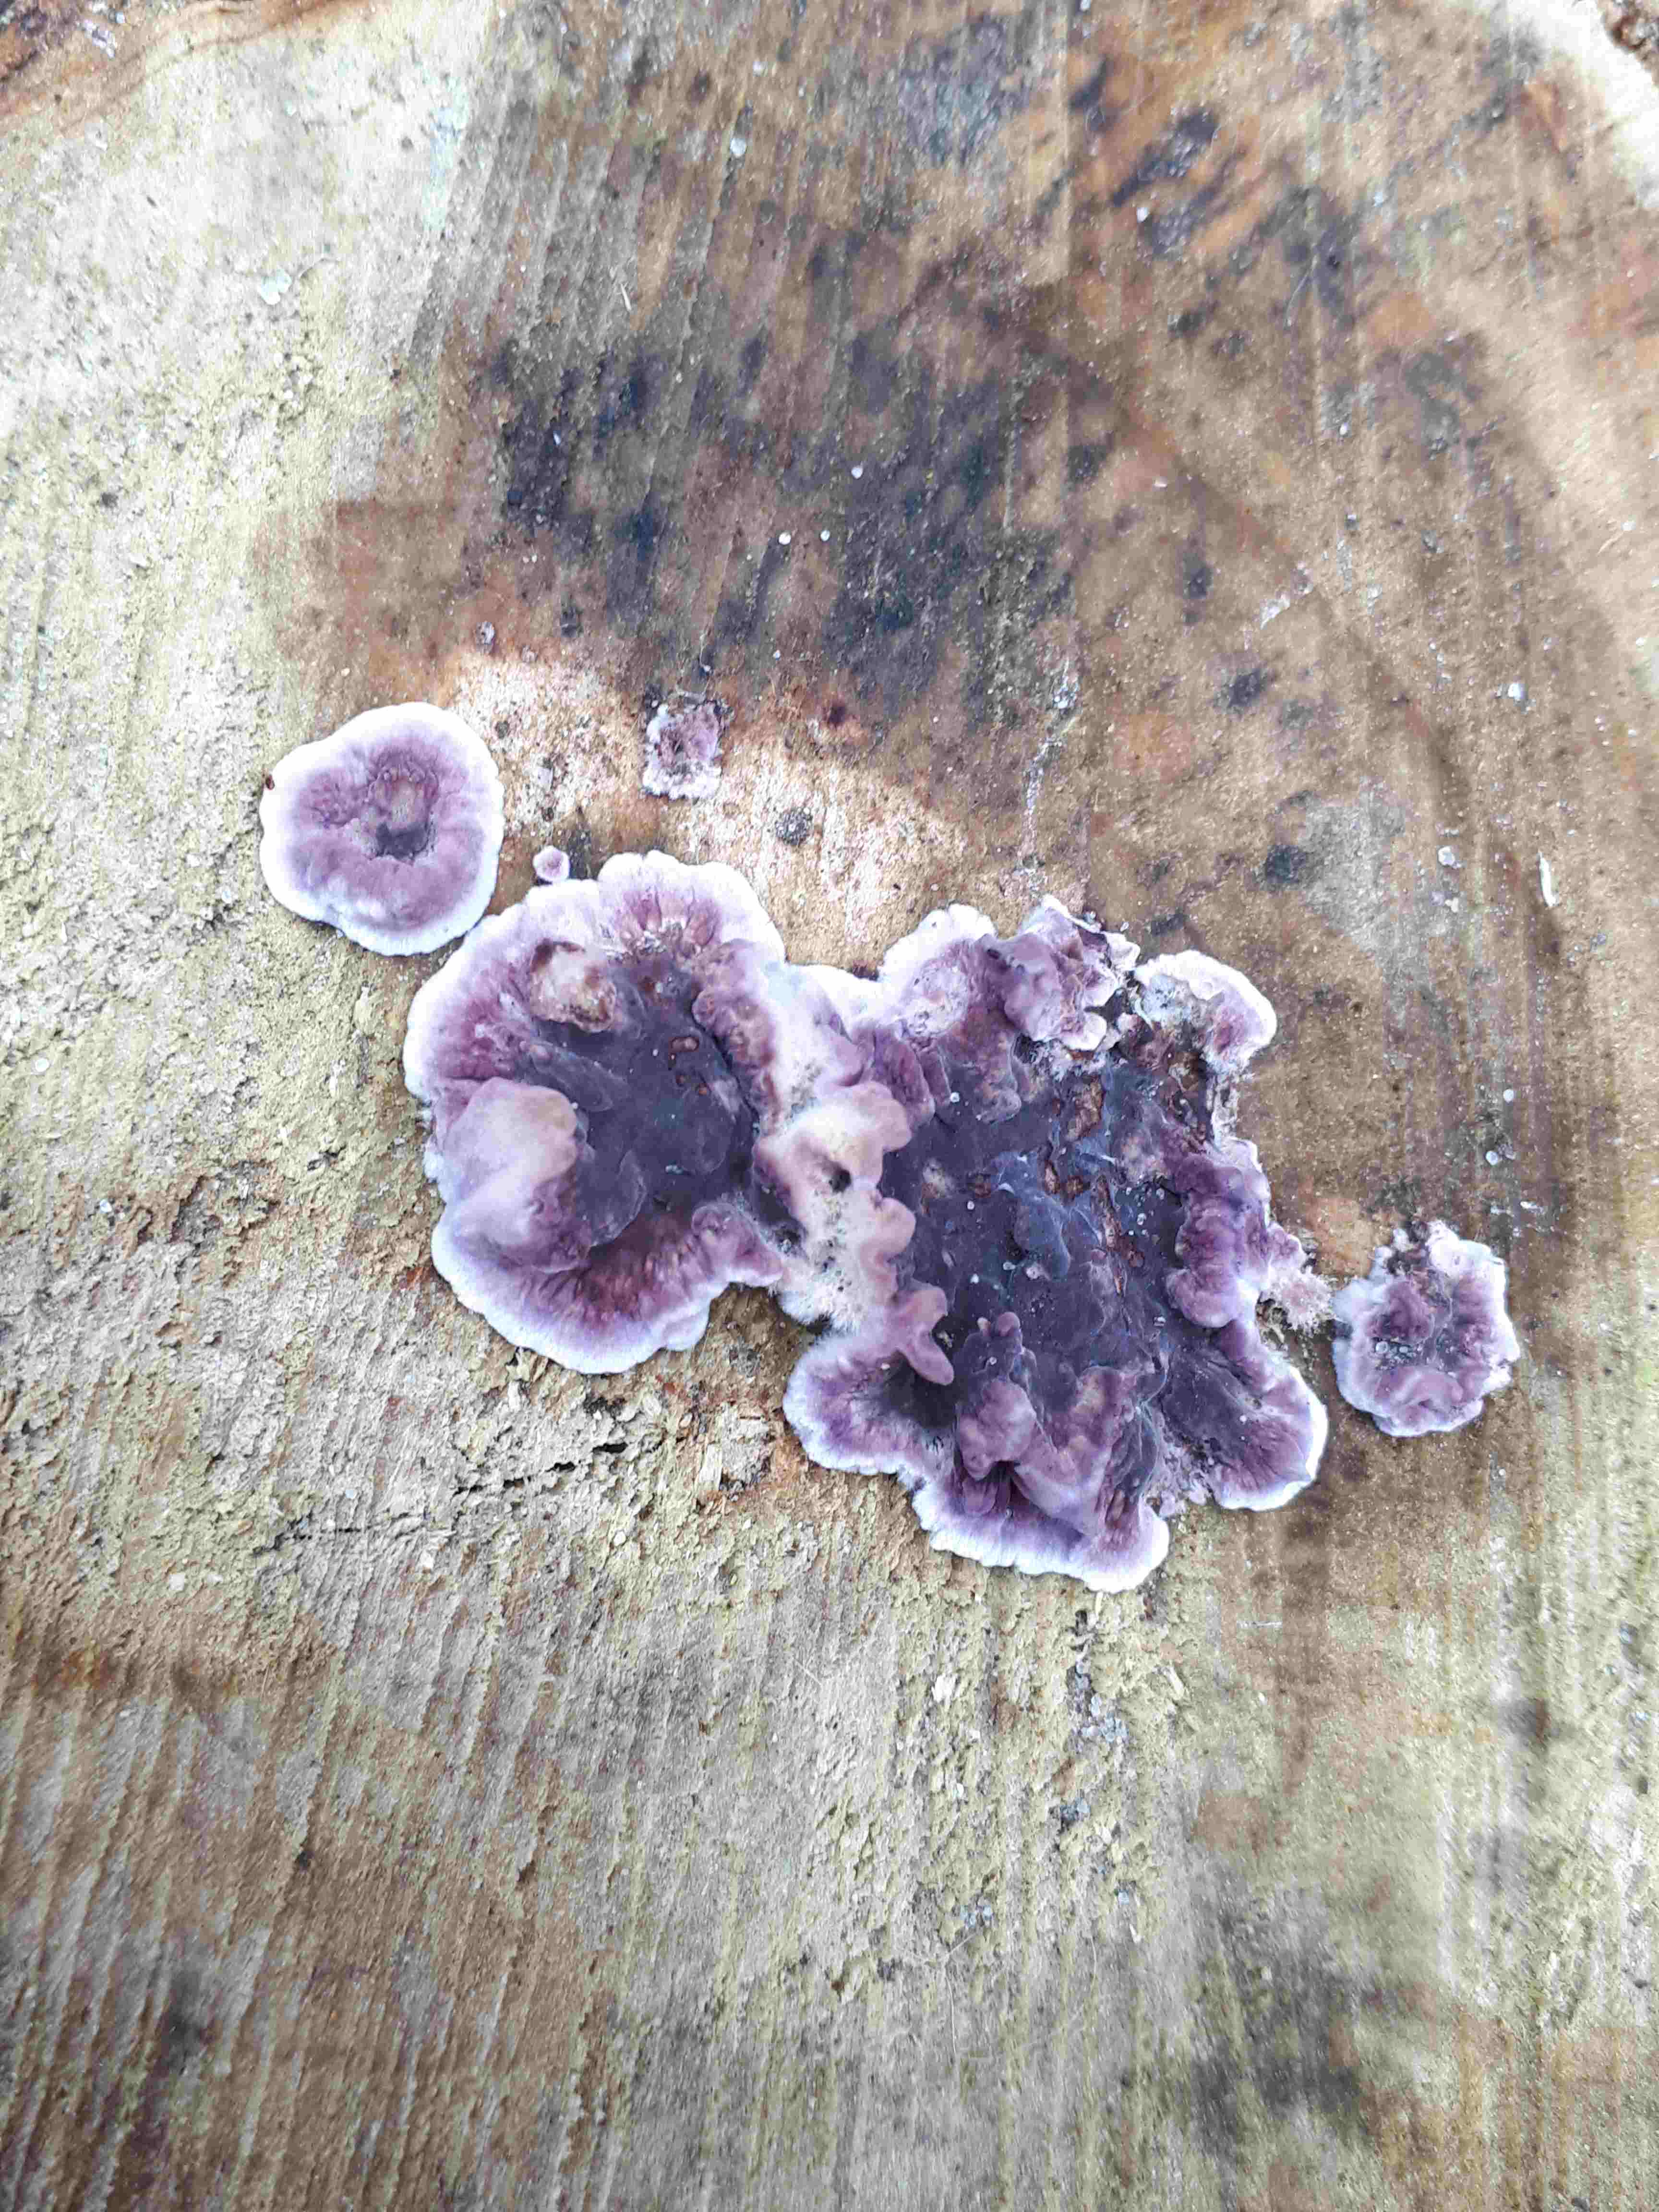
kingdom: Fungi
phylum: Basidiomycota
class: Agaricomycetes
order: Agaricales
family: Cyphellaceae
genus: Chondrostereum
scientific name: Chondrostereum purpureum
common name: purpurlædersvamp
